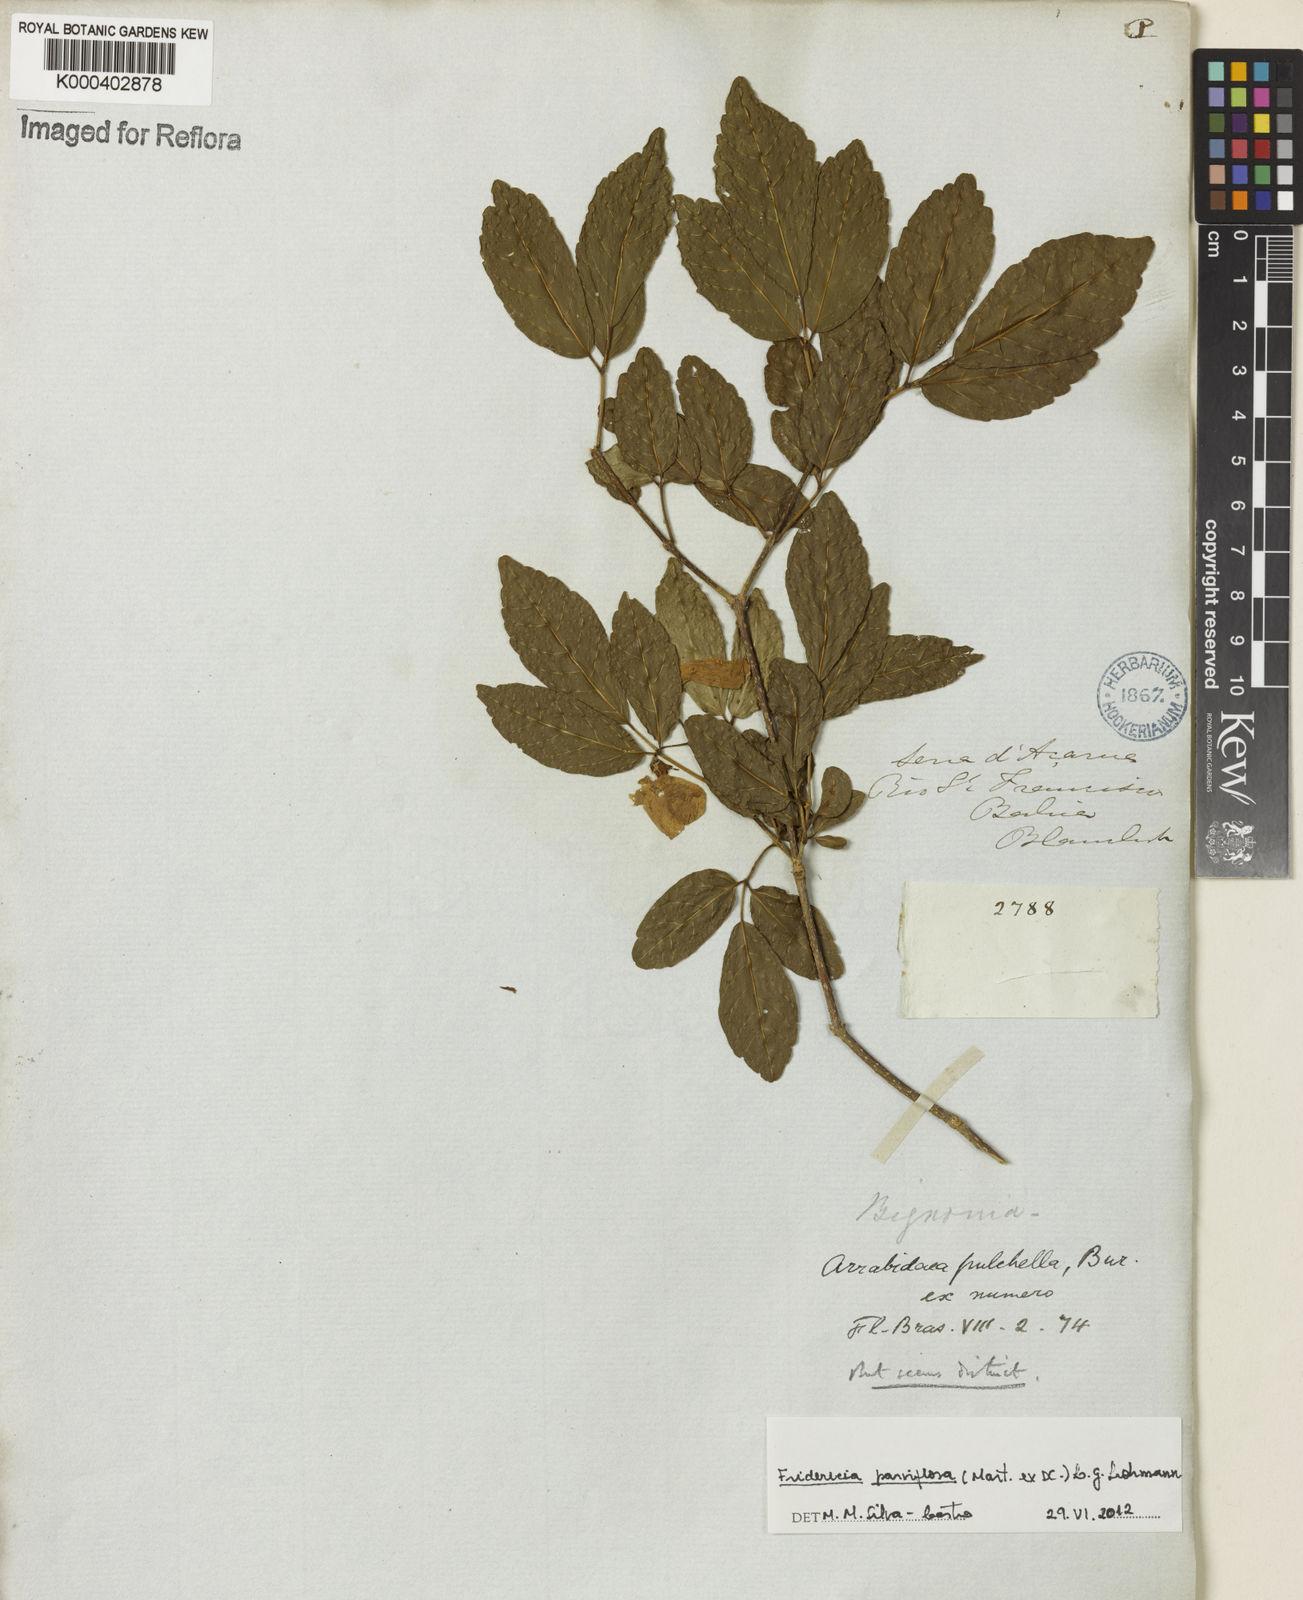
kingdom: Plantae
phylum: Tracheophyta
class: Magnoliopsida
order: Lamiales
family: Bignoniaceae
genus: Tanaecium
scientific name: Tanaecium parviflorum
